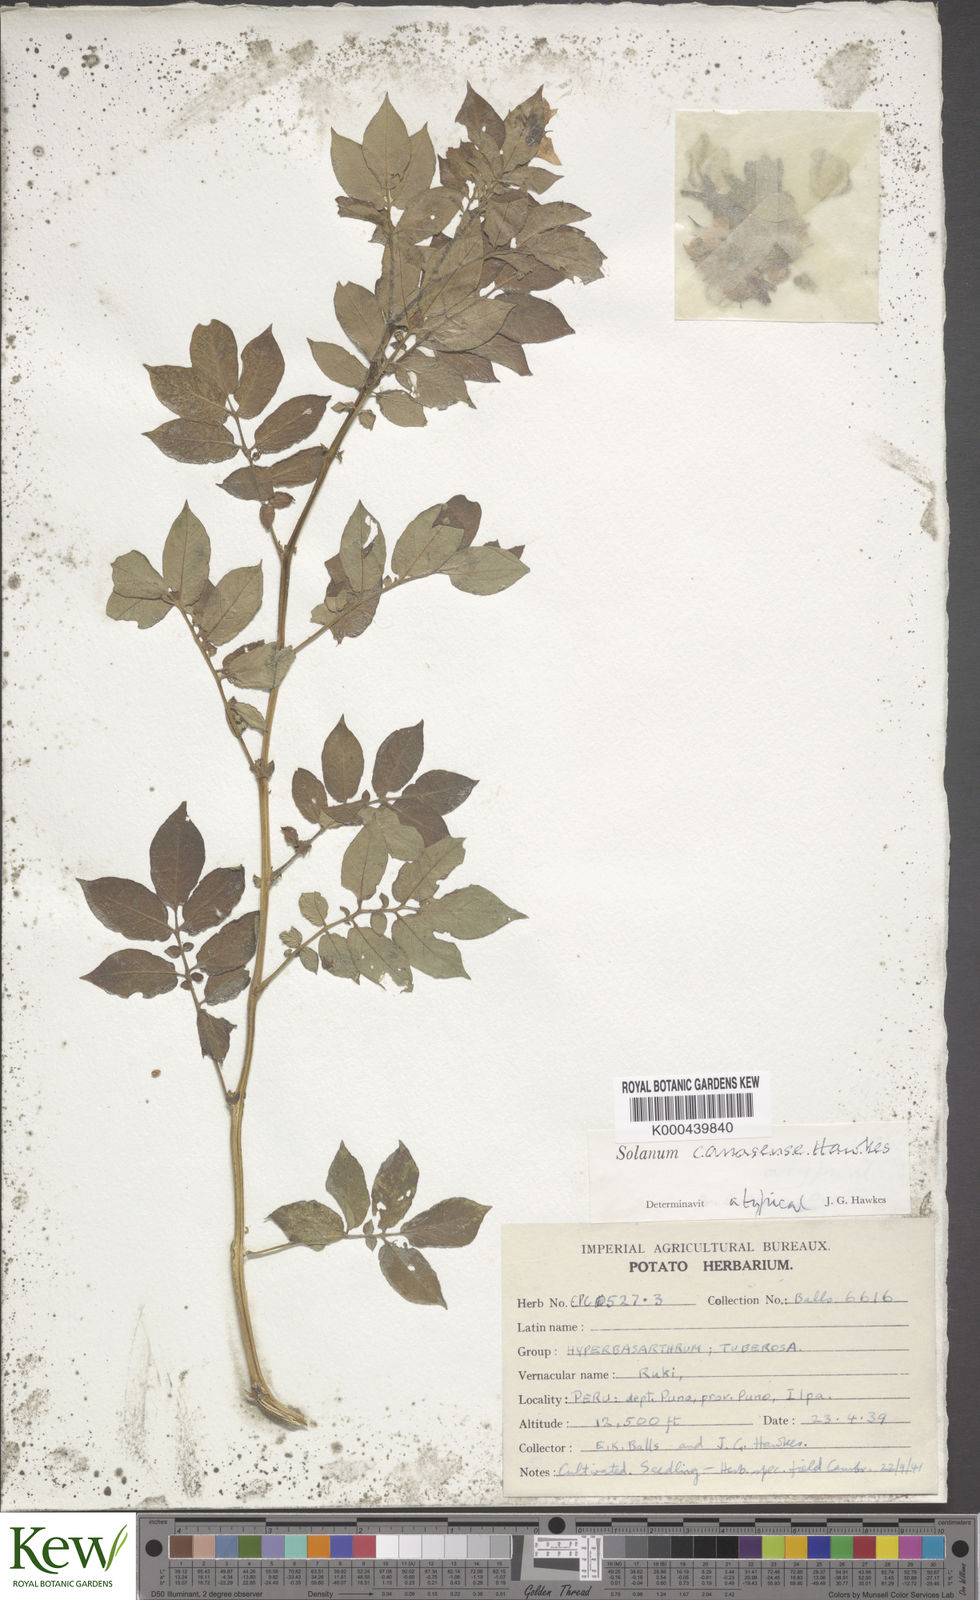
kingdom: Plantae
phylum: Tracheophyta
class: Magnoliopsida
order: Solanales
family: Solanaceae
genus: Solanum
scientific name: Solanum candolleanum
